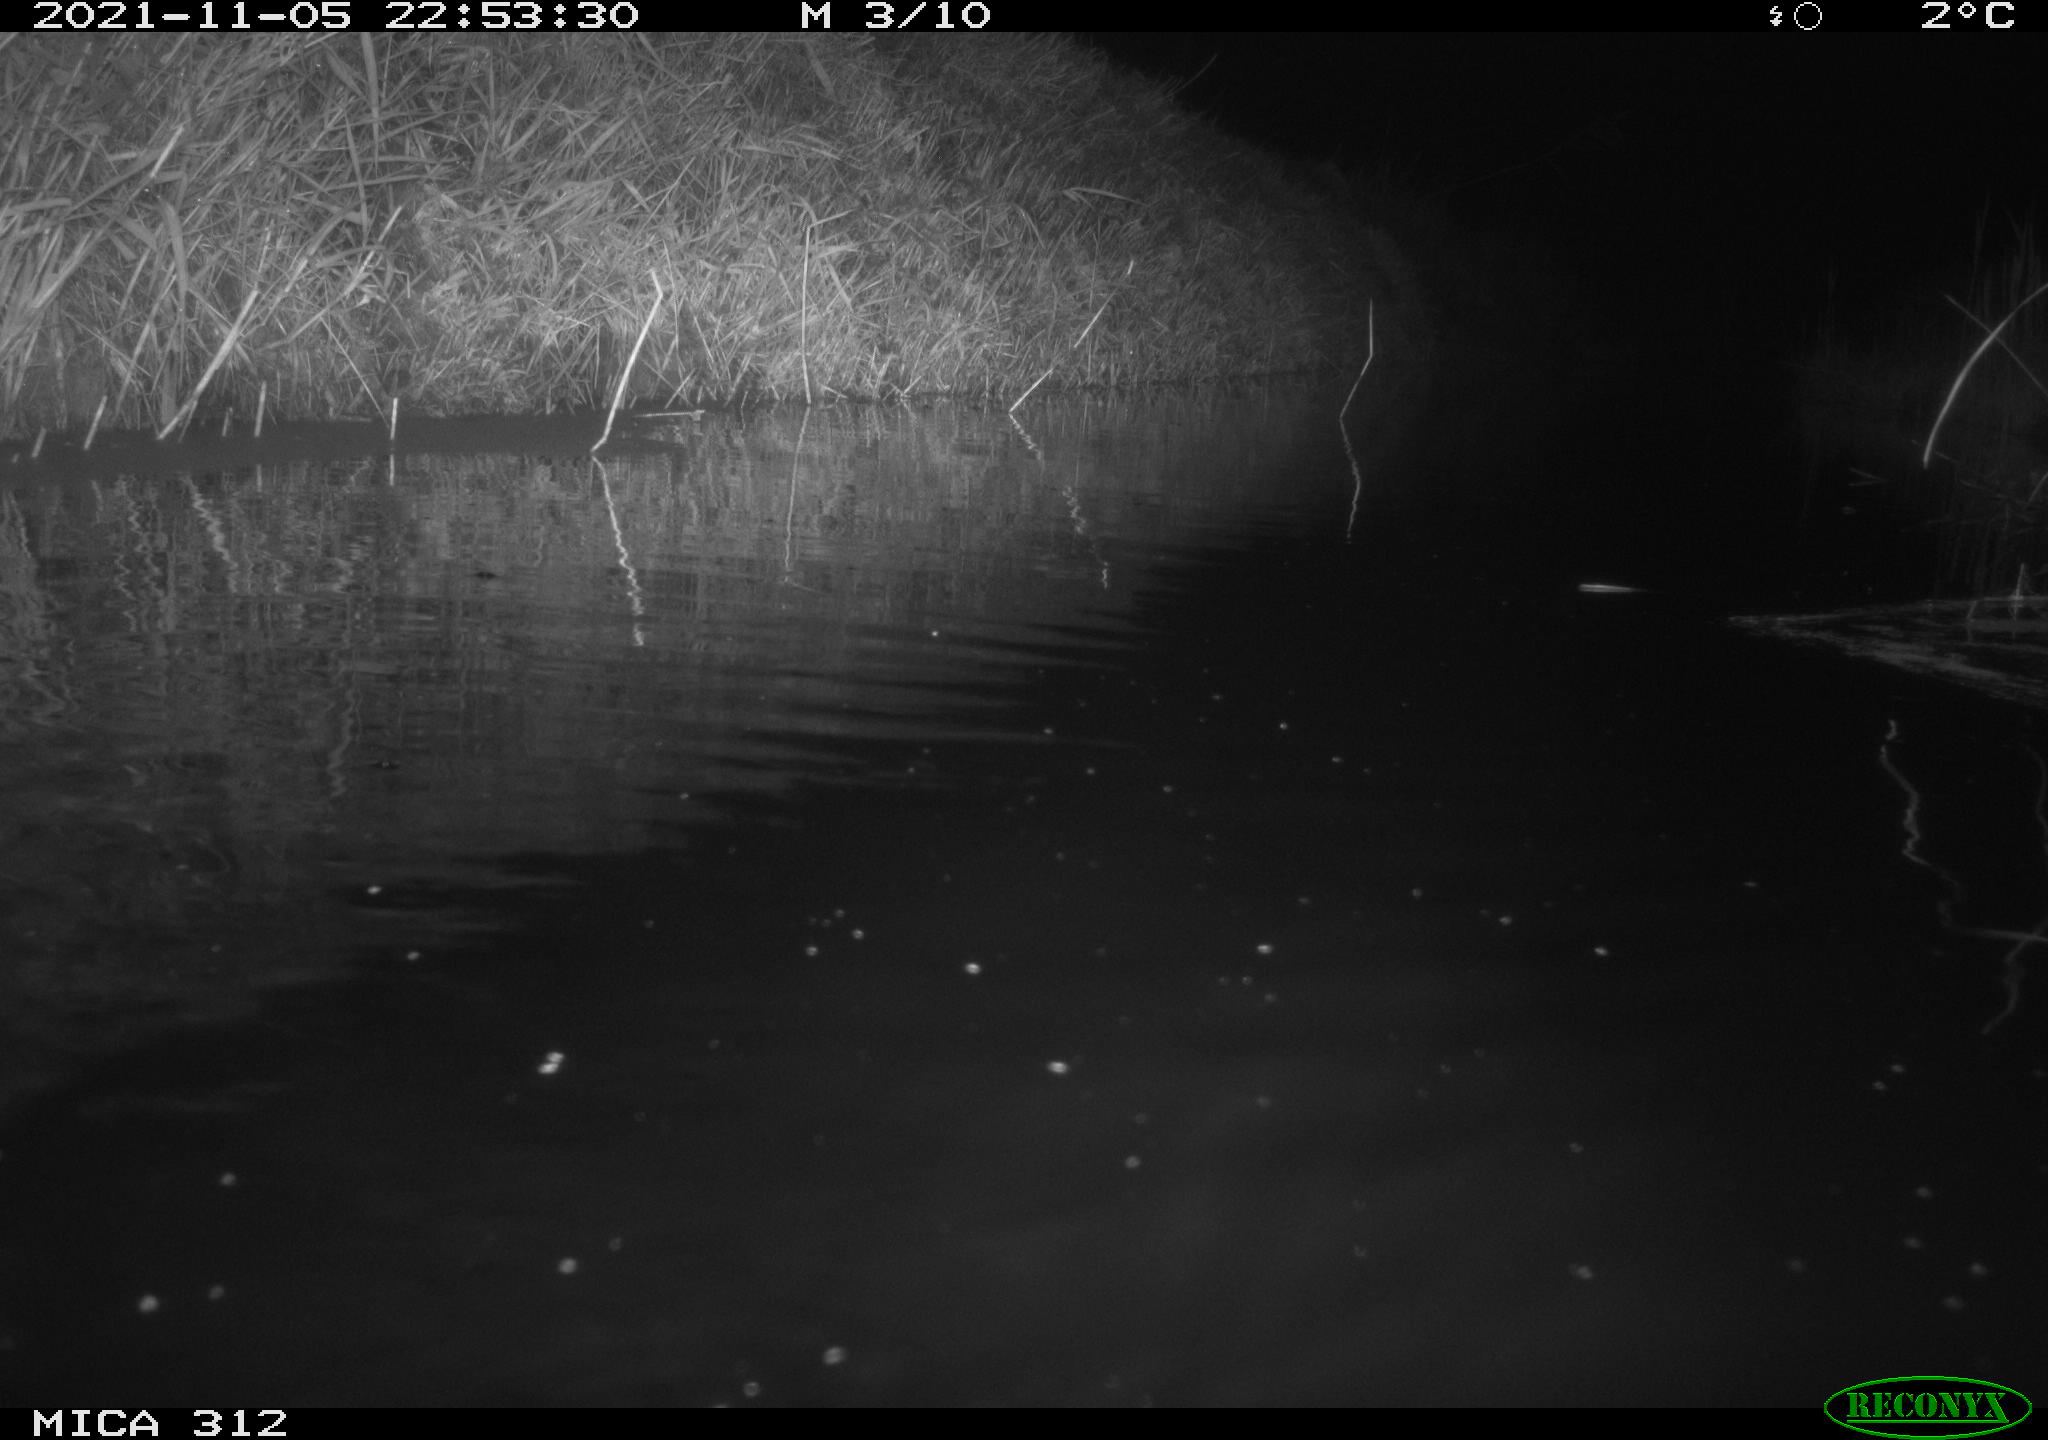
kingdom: Animalia
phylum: Chordata
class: Mammalia
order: Rodentia
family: Muridae
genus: Rattus
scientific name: Rattus norvegicus
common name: Brown rat
